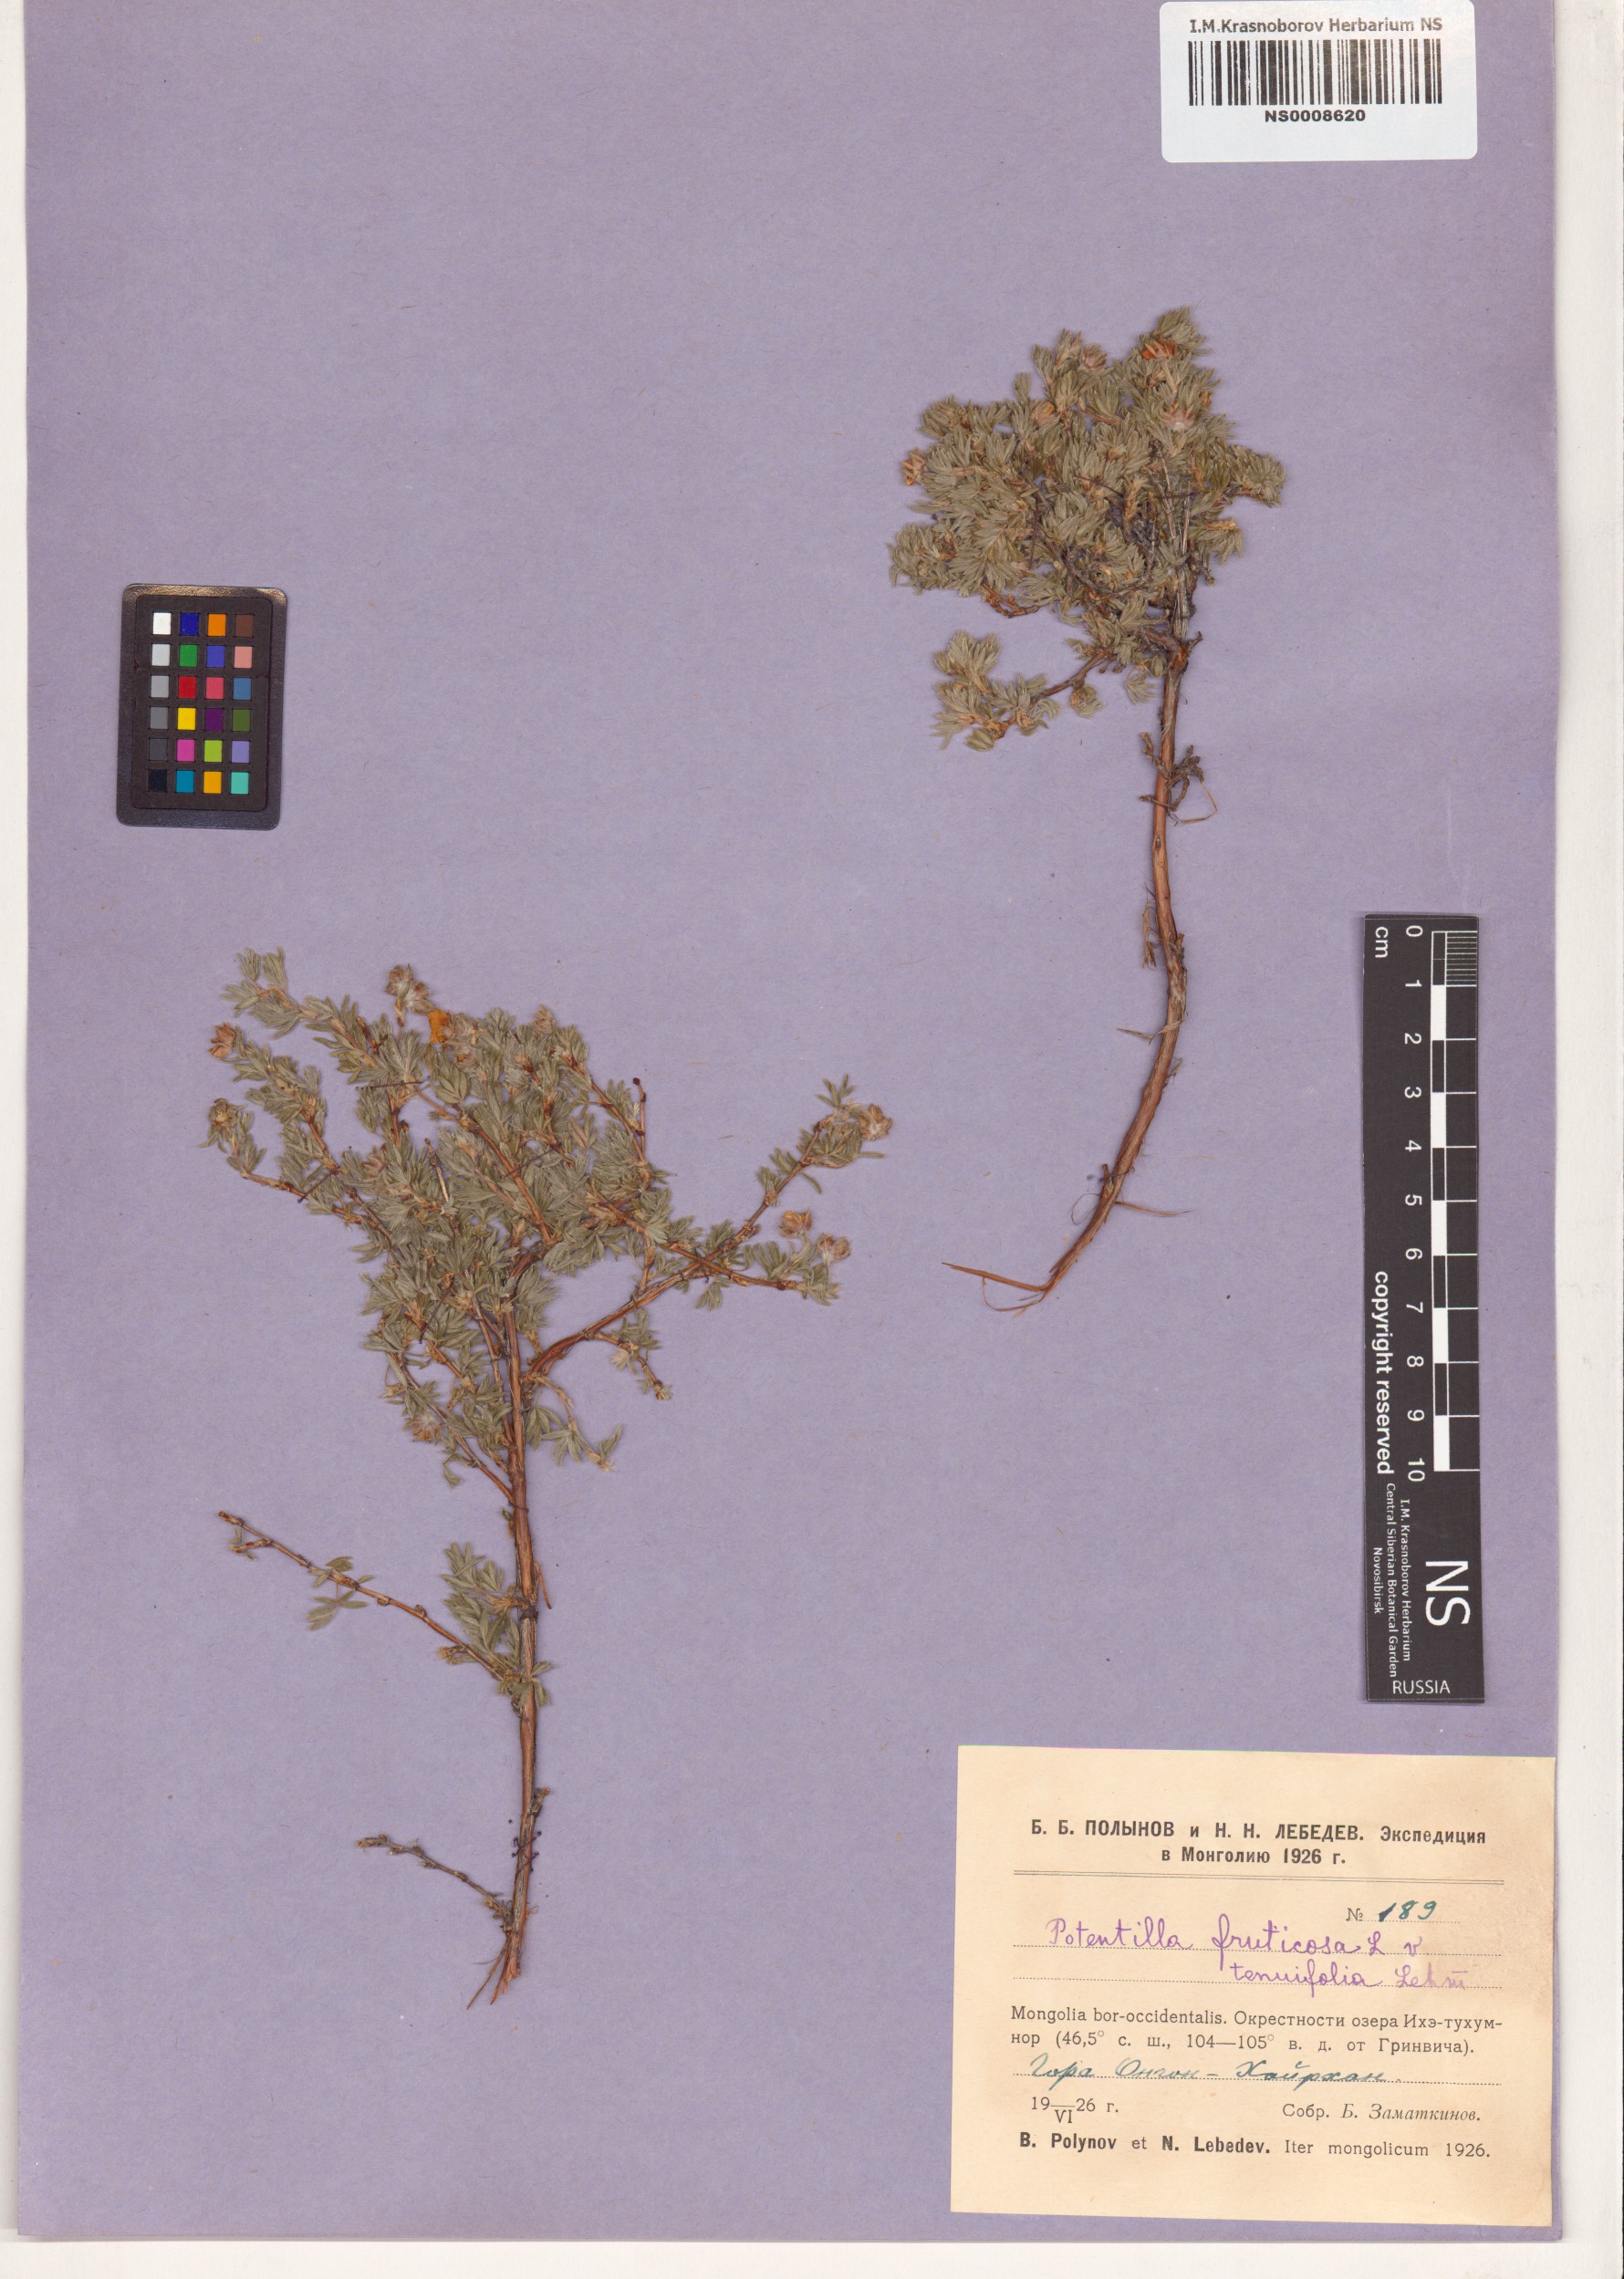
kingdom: Plantae
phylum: Tracheophyta
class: Magnoliopsida
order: Rosales
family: Rosaceae
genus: Dasiphora
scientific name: Dasiphora fruticosa
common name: Shrubby cinquefoil
